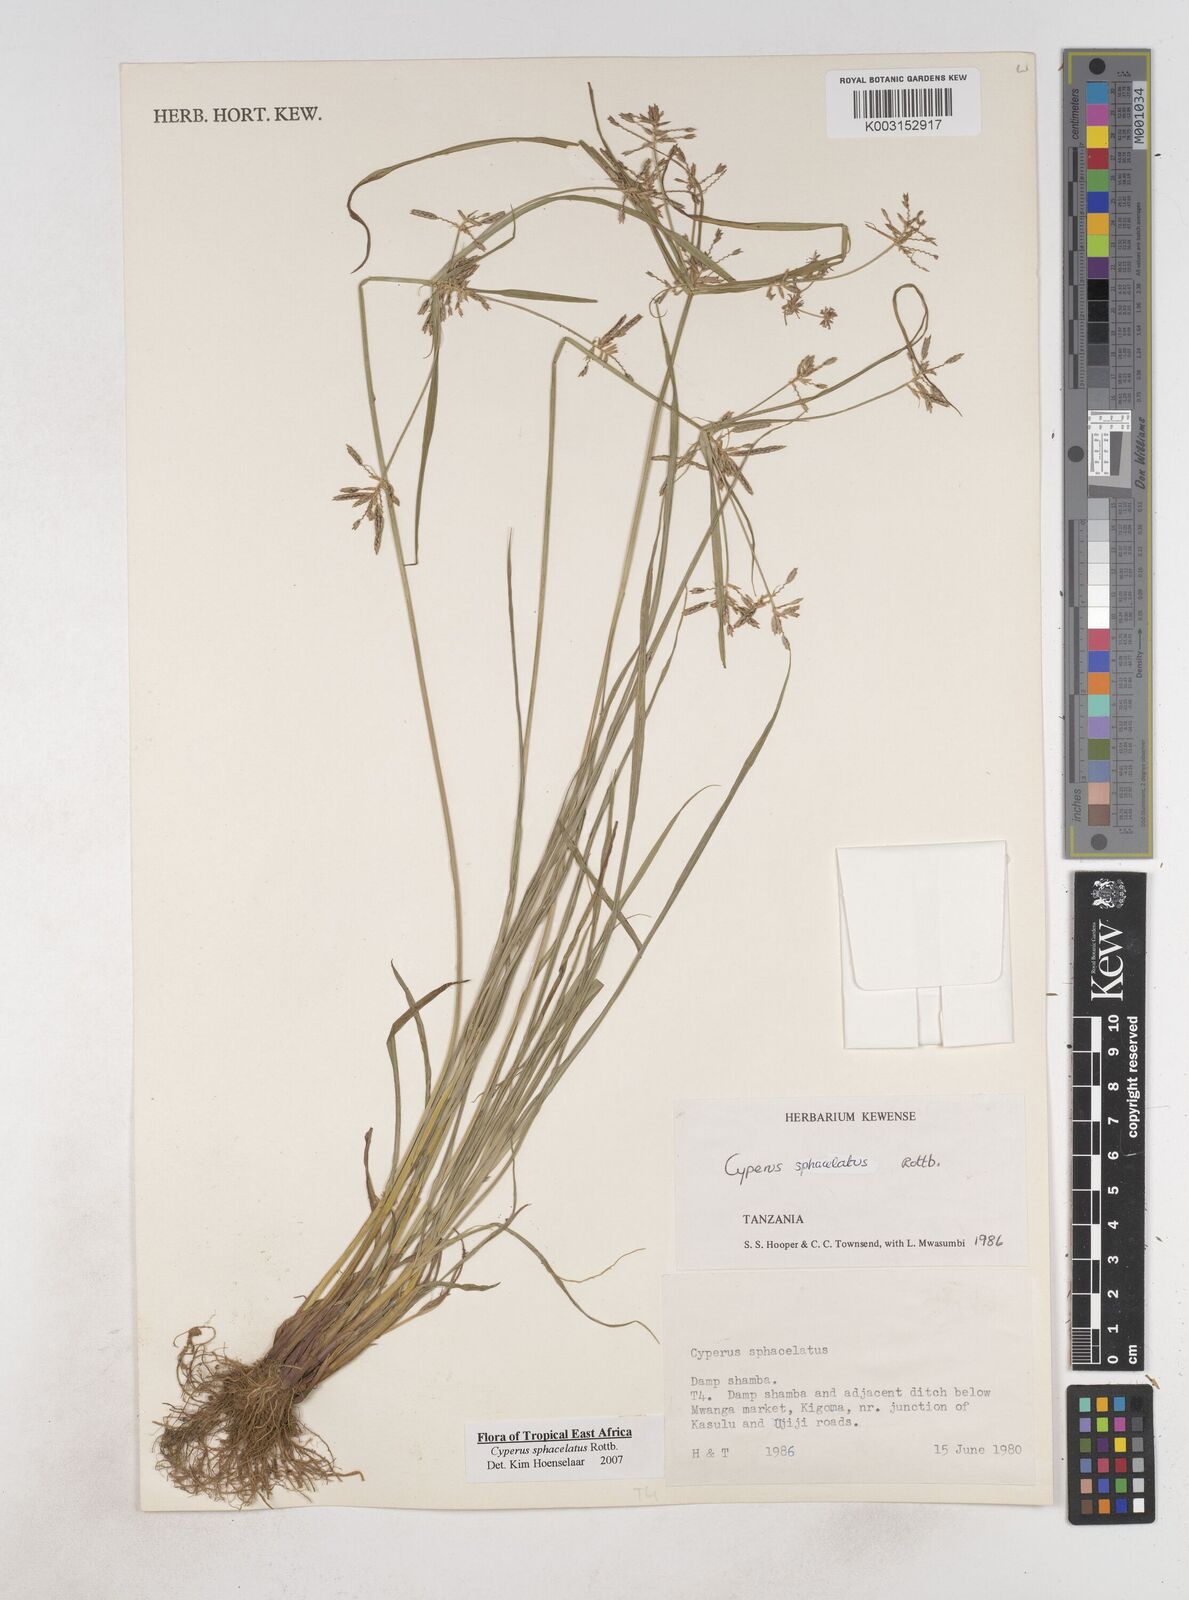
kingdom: Plantae
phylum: Tracheophyta
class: Liliopsida
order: Poales
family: Cyperaceae
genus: Cyperus
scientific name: Cyperus sphacelatus
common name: Roadside flatsedge
